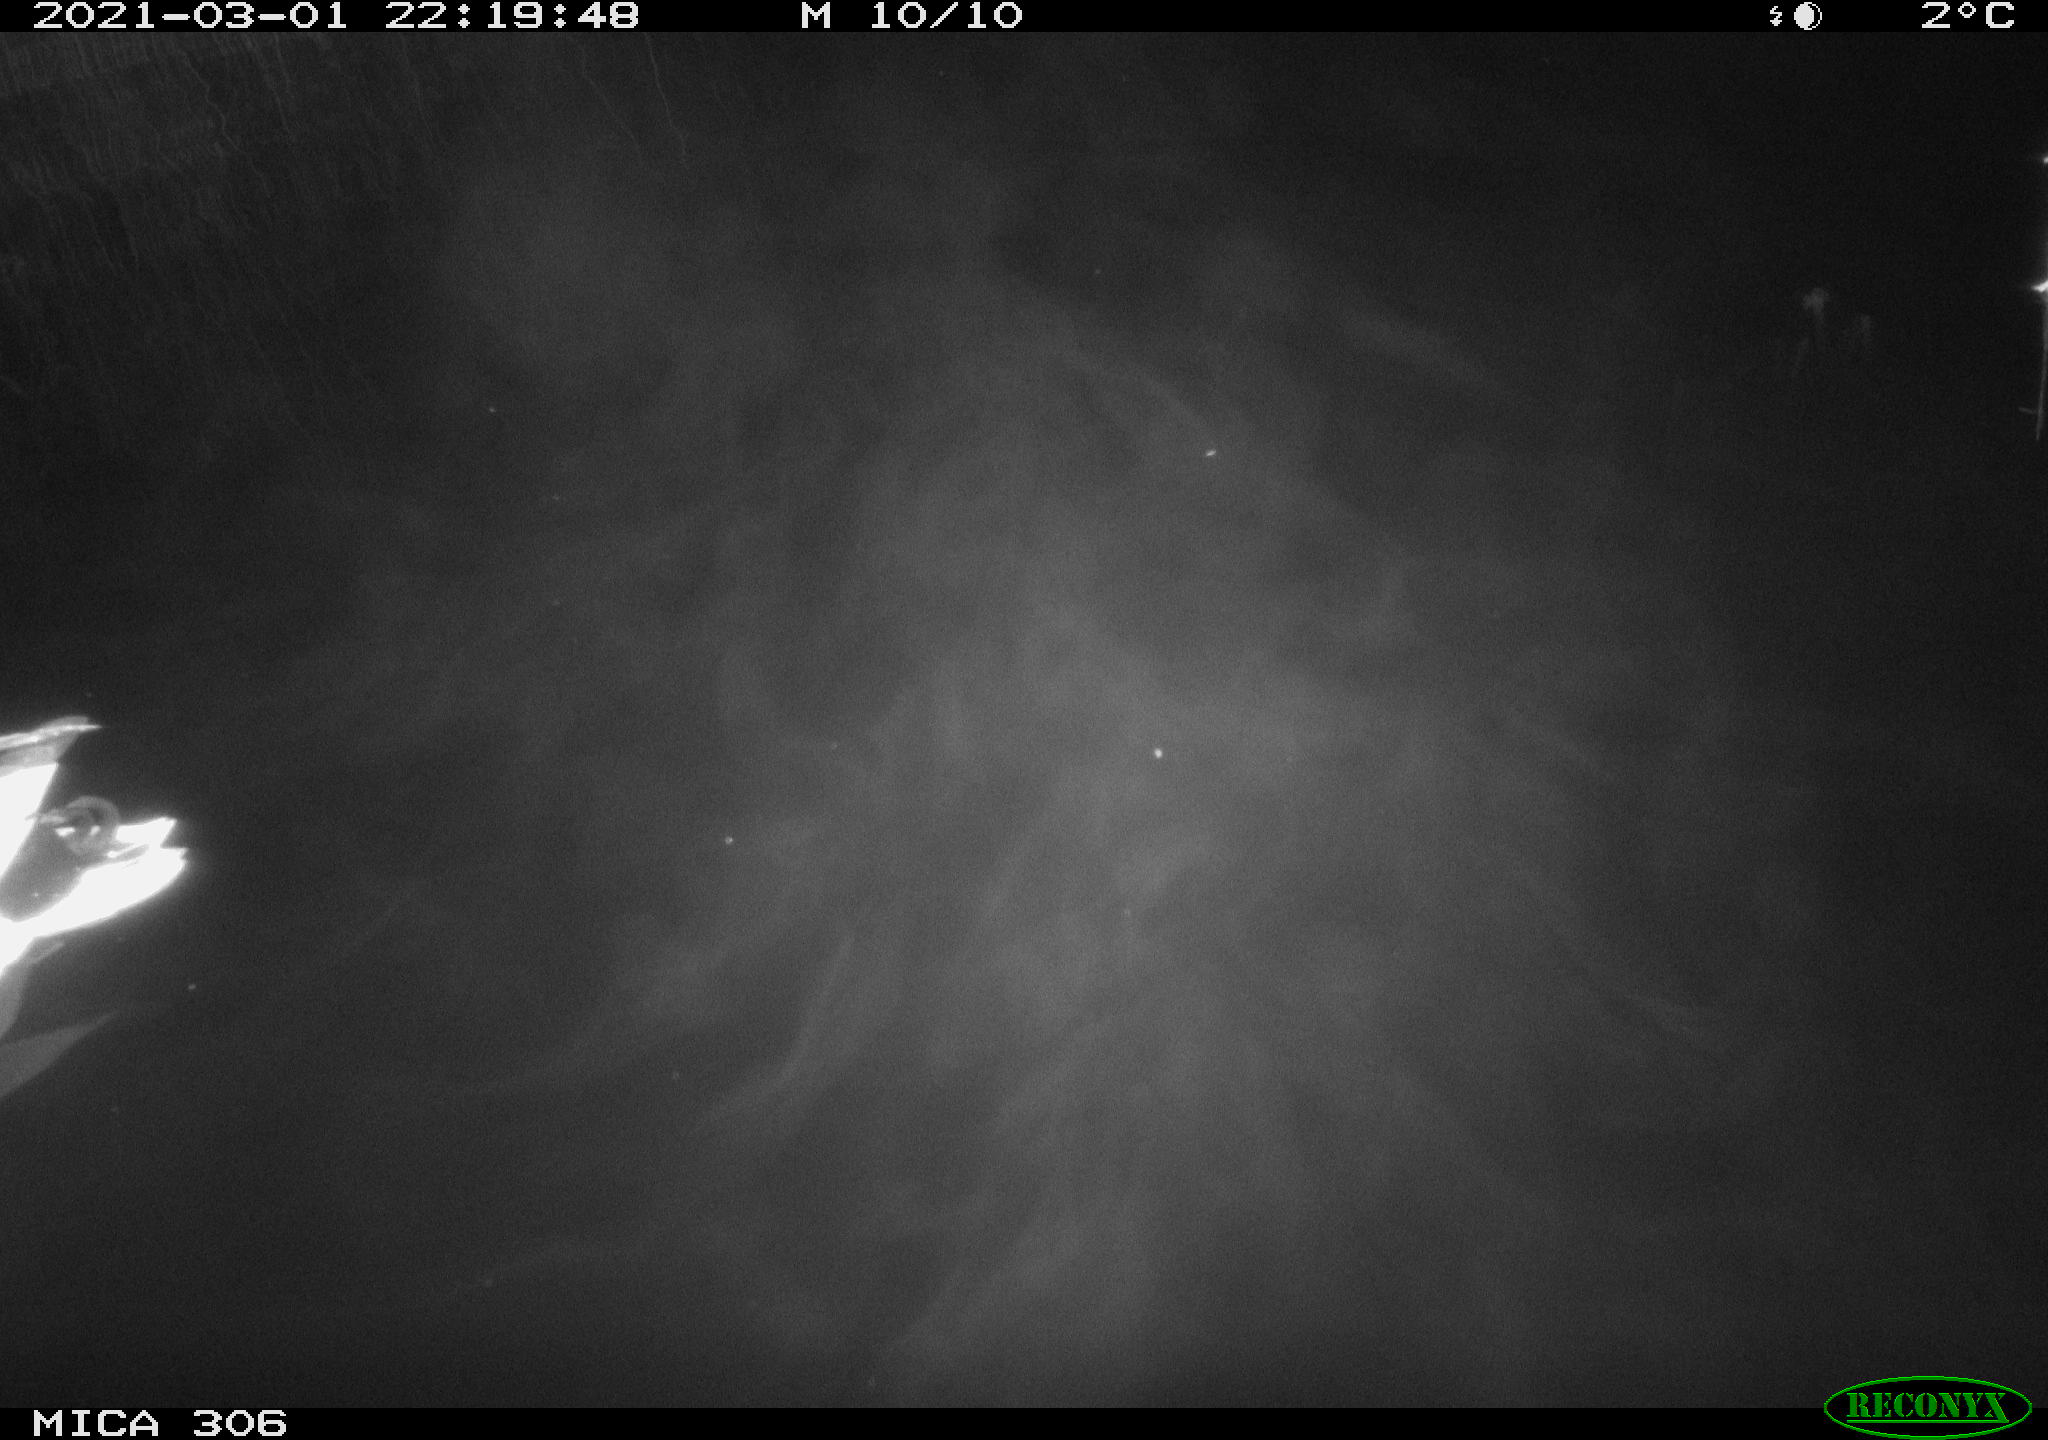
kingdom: Animalia
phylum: Chordata
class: Aves
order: Anseriformes
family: Anatidae
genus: Anas
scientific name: Anas platyrhynchos
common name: Mallard
